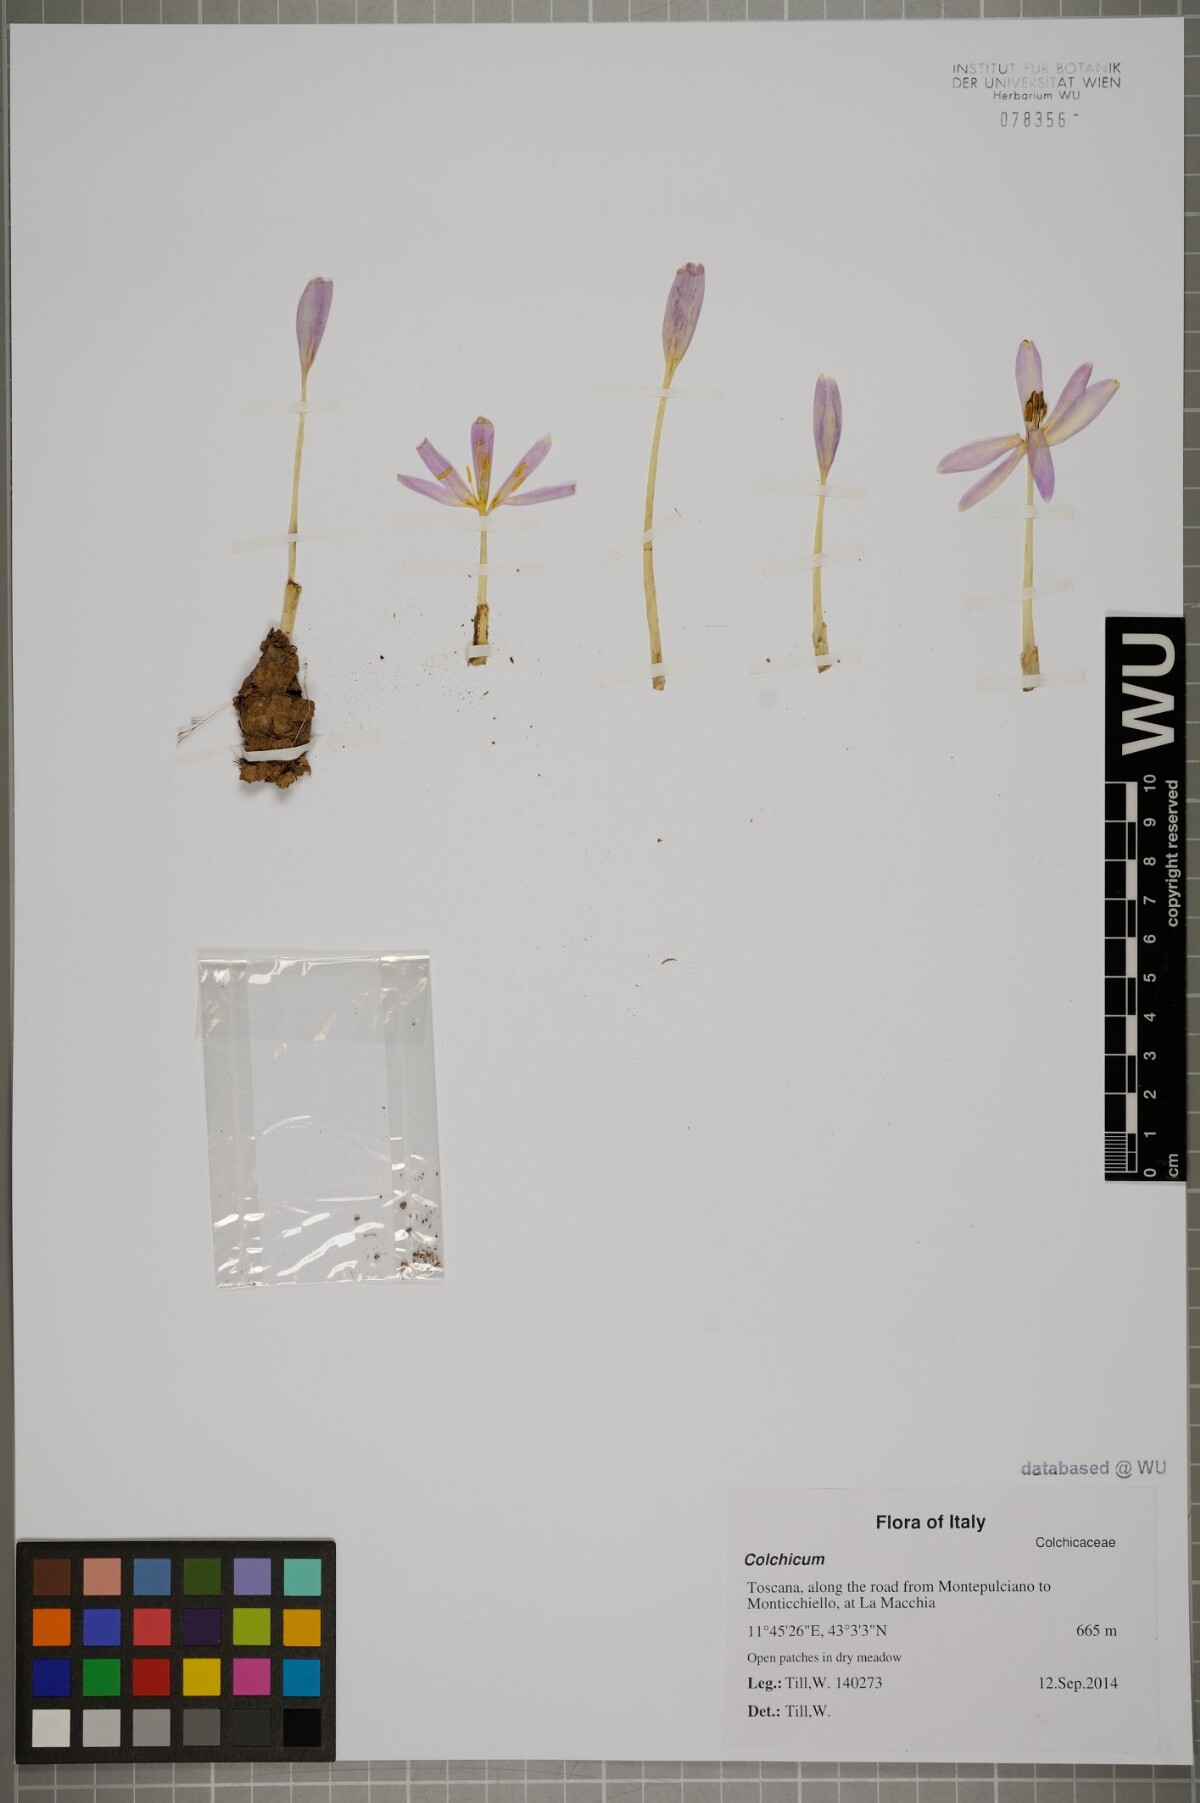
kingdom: Plantae
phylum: Tracheophyta
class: Liliopsida
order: Liliales
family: Colchicaceae
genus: Colchicum
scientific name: Colchicum
